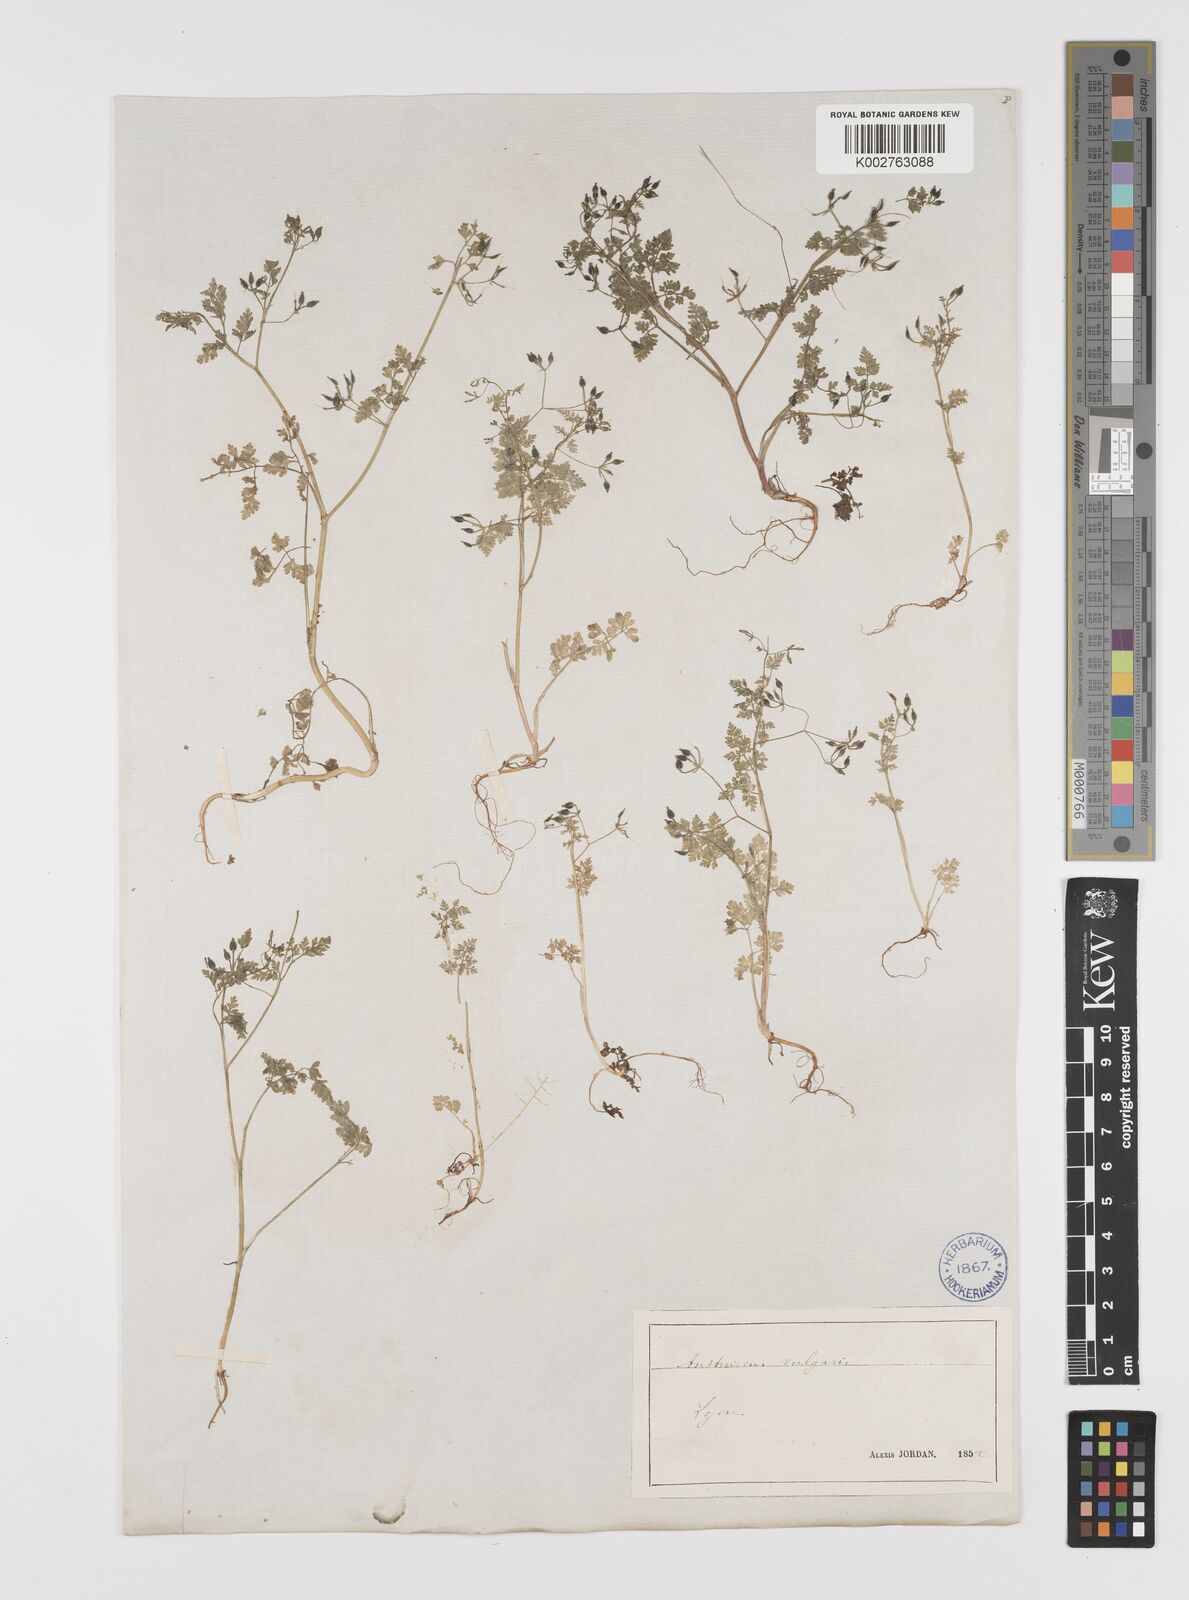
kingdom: Plantae
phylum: Tracheophyta
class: Magnoliopsida
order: Apiales
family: Apiaceae
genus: Anthriscus
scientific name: Anthriscus caucalis
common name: Bur chervil
